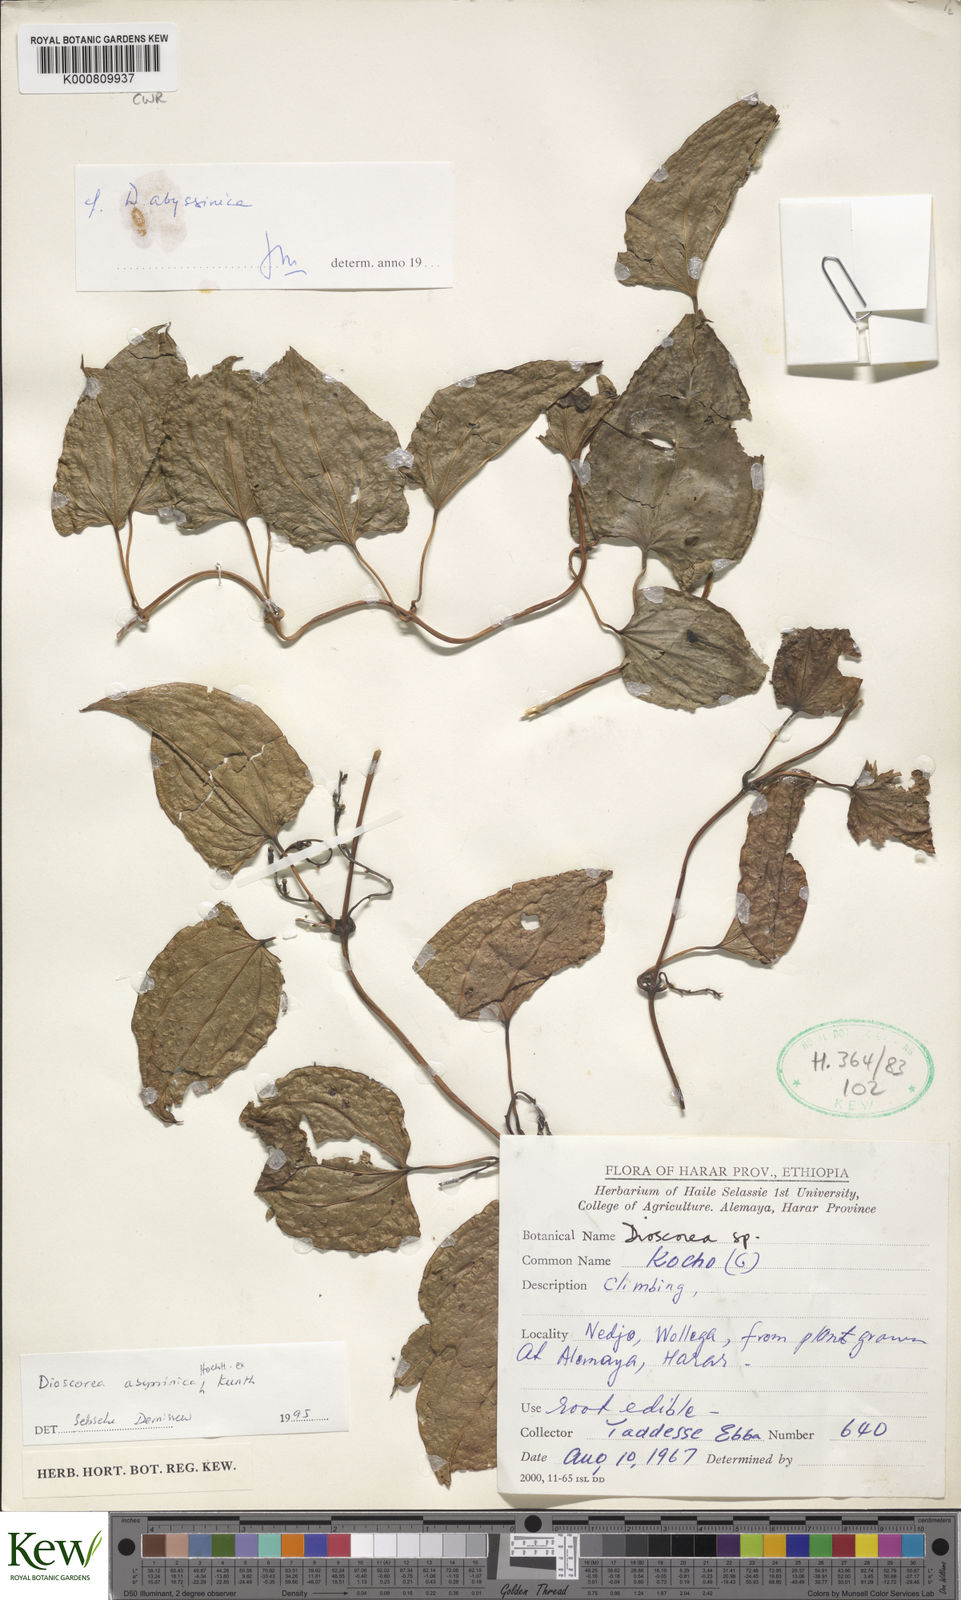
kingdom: Plantae
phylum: Tracheophyta
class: Liliopsida
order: Dioscoreales
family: Dioscoreaceae
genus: Dioscorea
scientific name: Dioscorea abyssinica
